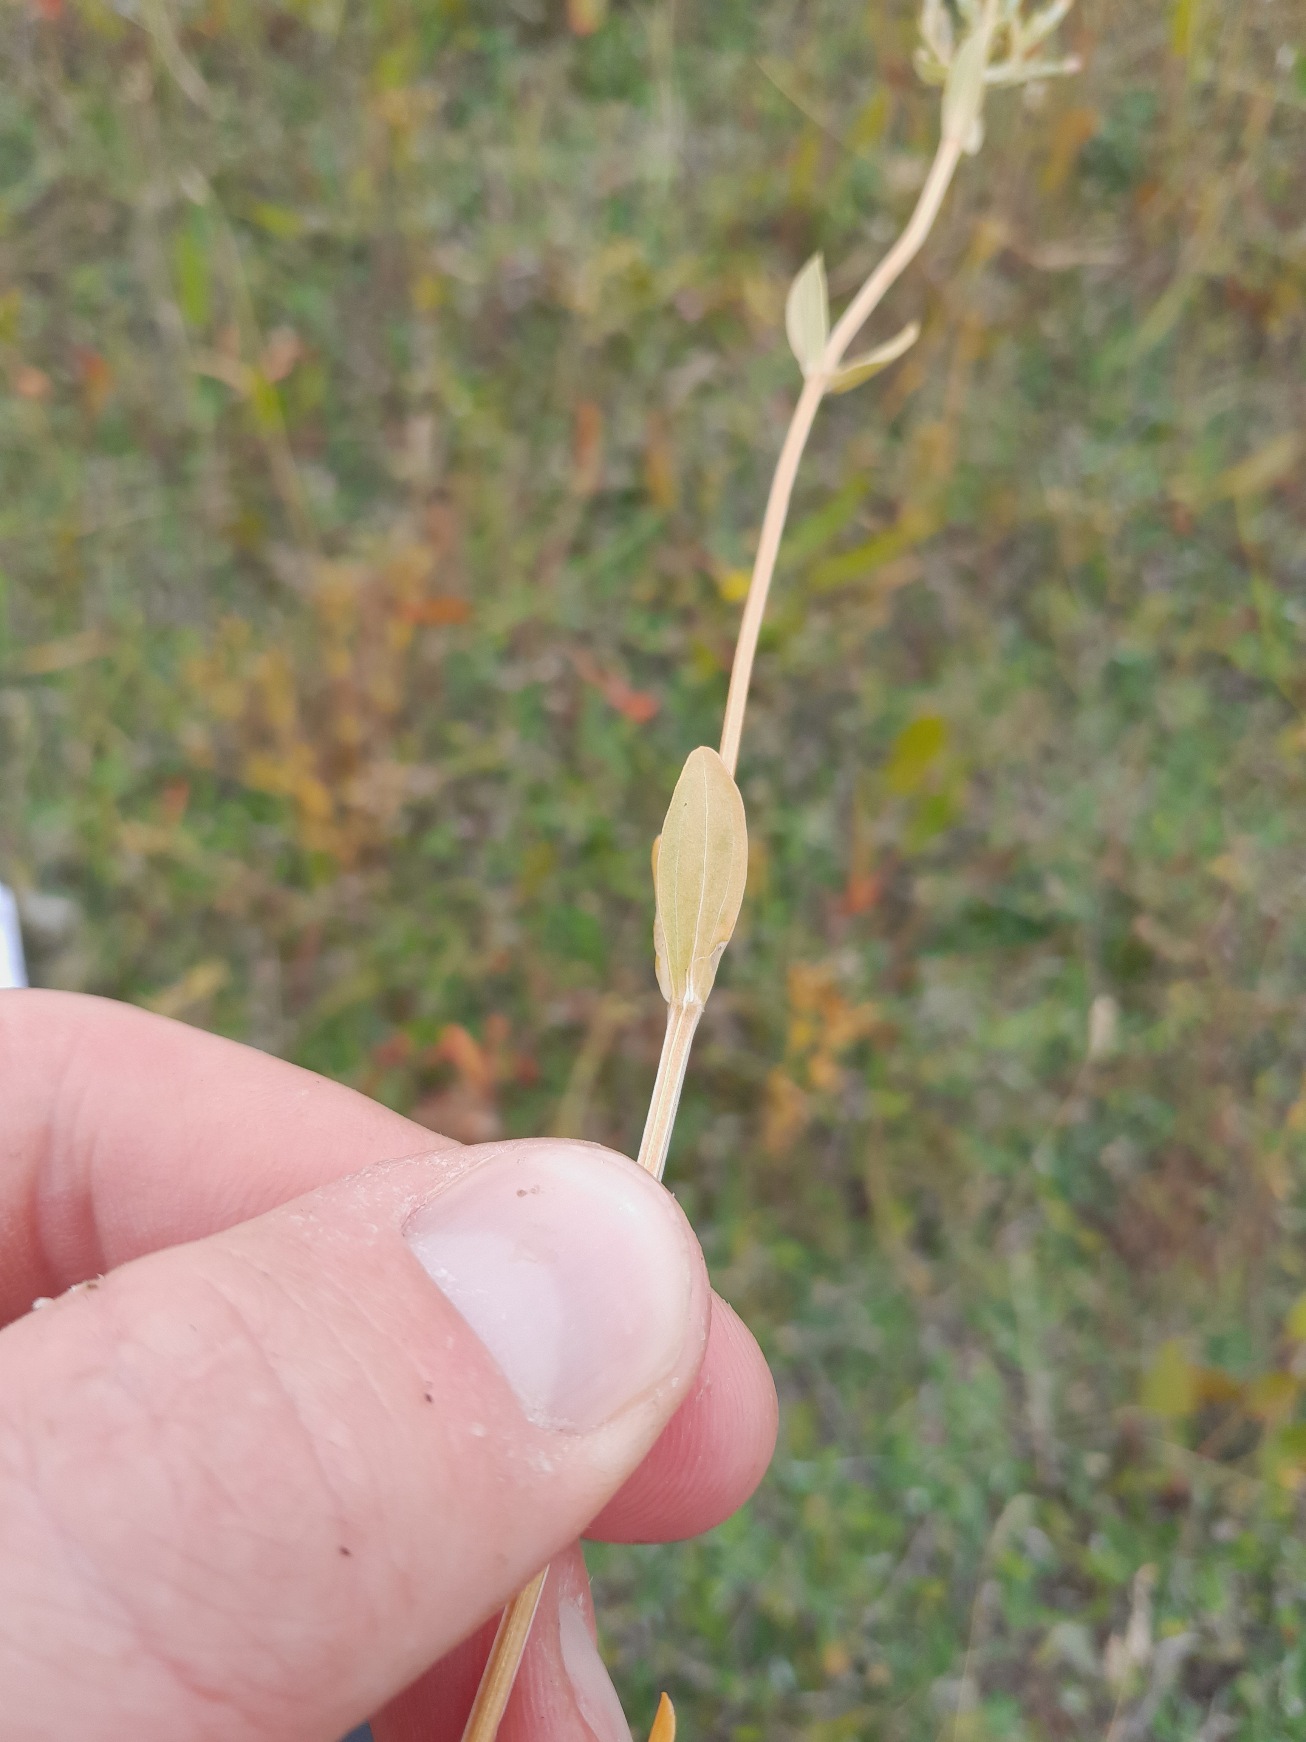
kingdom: Plantae
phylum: Tracheophyta
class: Magnoliopsida
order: Gentianales
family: Gentianaceae
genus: Centaurium
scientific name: Centaurium erythraea
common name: Mark-tusindgylden
